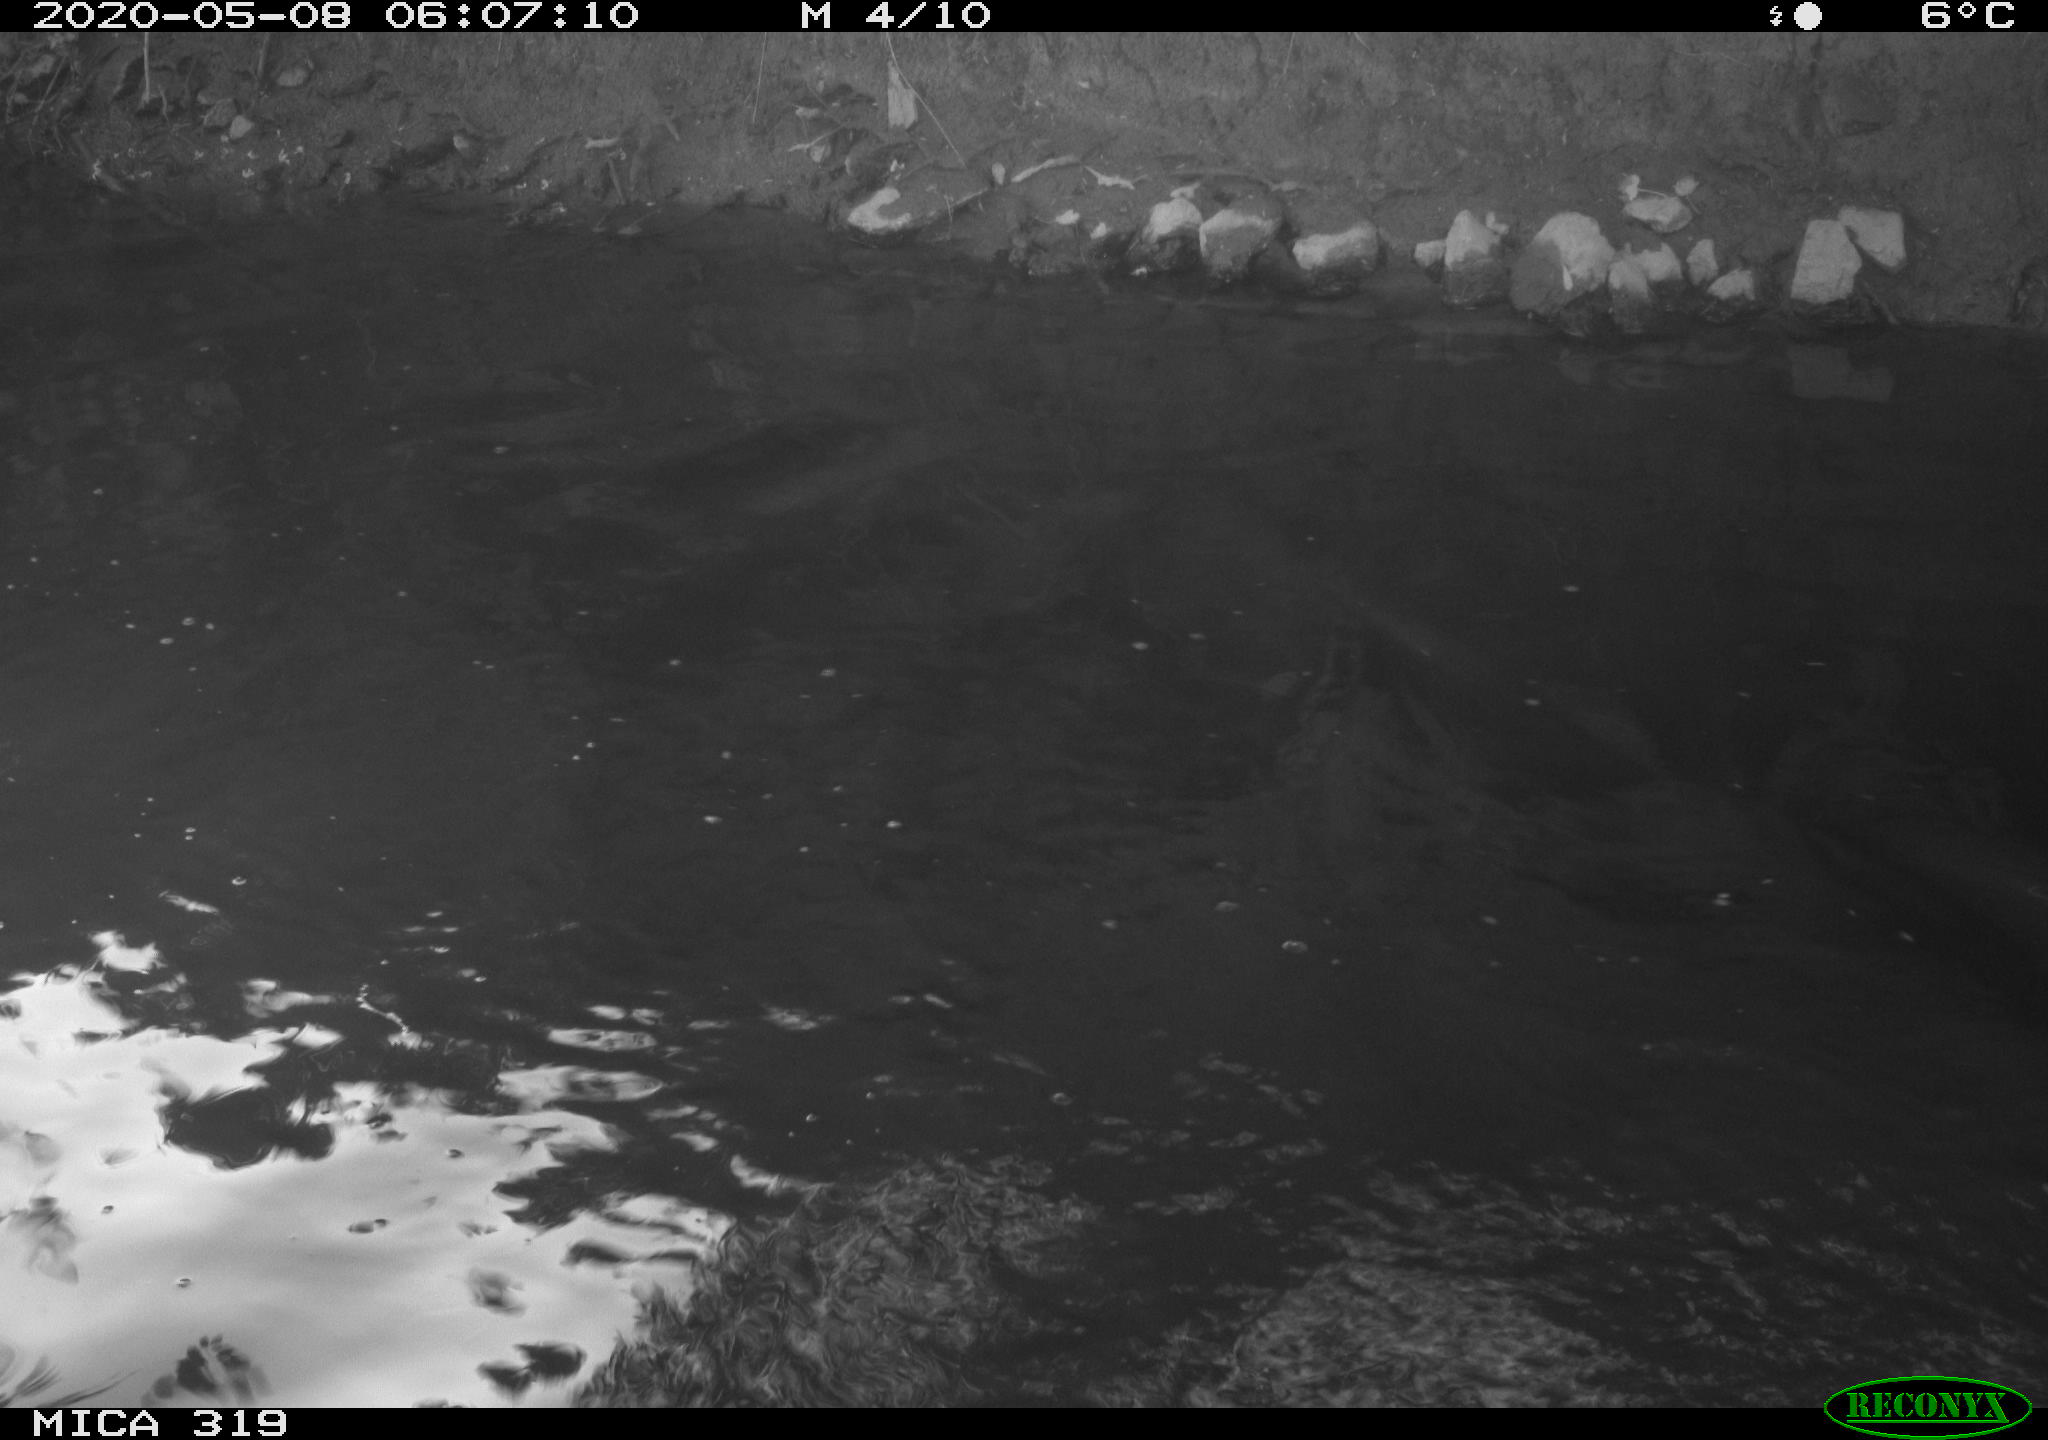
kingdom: Animalia
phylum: Chordata
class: Aves
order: Anseriformes
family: Anatidae
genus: Anas
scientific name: Anas platyrhynchos
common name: Mallard
